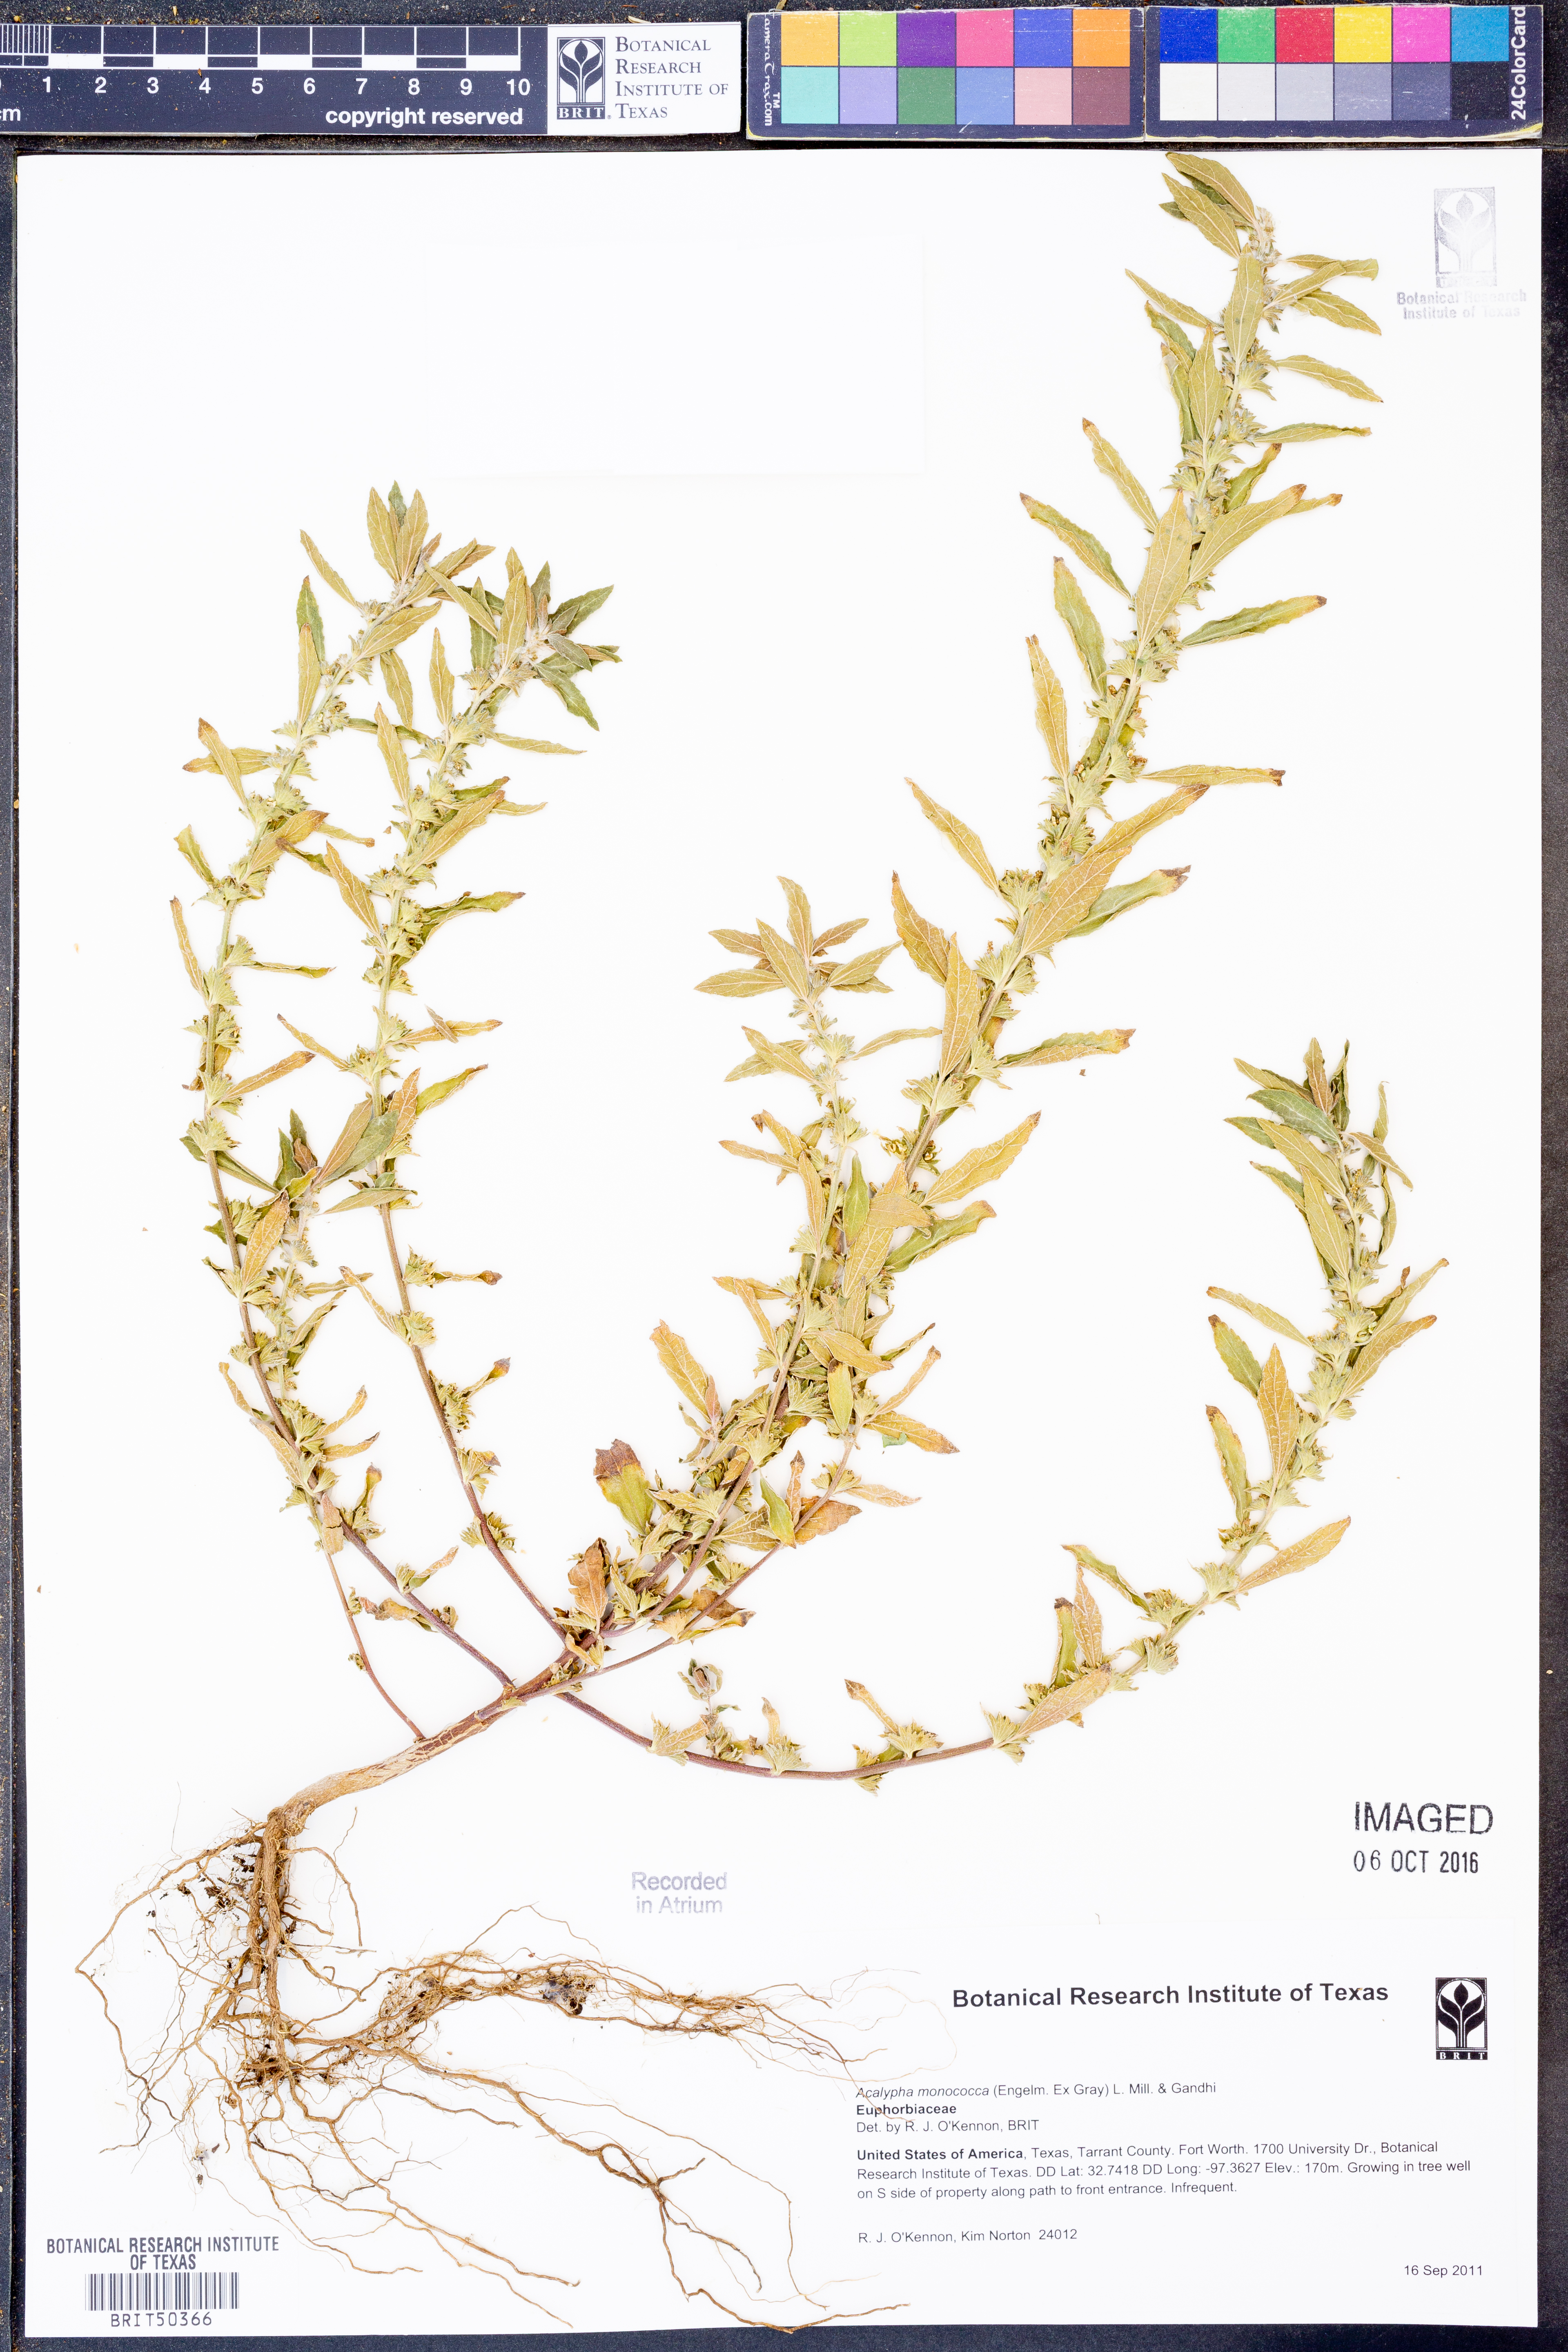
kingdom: Plantae
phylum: Tracheophyta
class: Magnoliopsida
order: Malpighiales
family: Euphorbiaceae
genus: Acalypha
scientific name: Acalypha monococca
